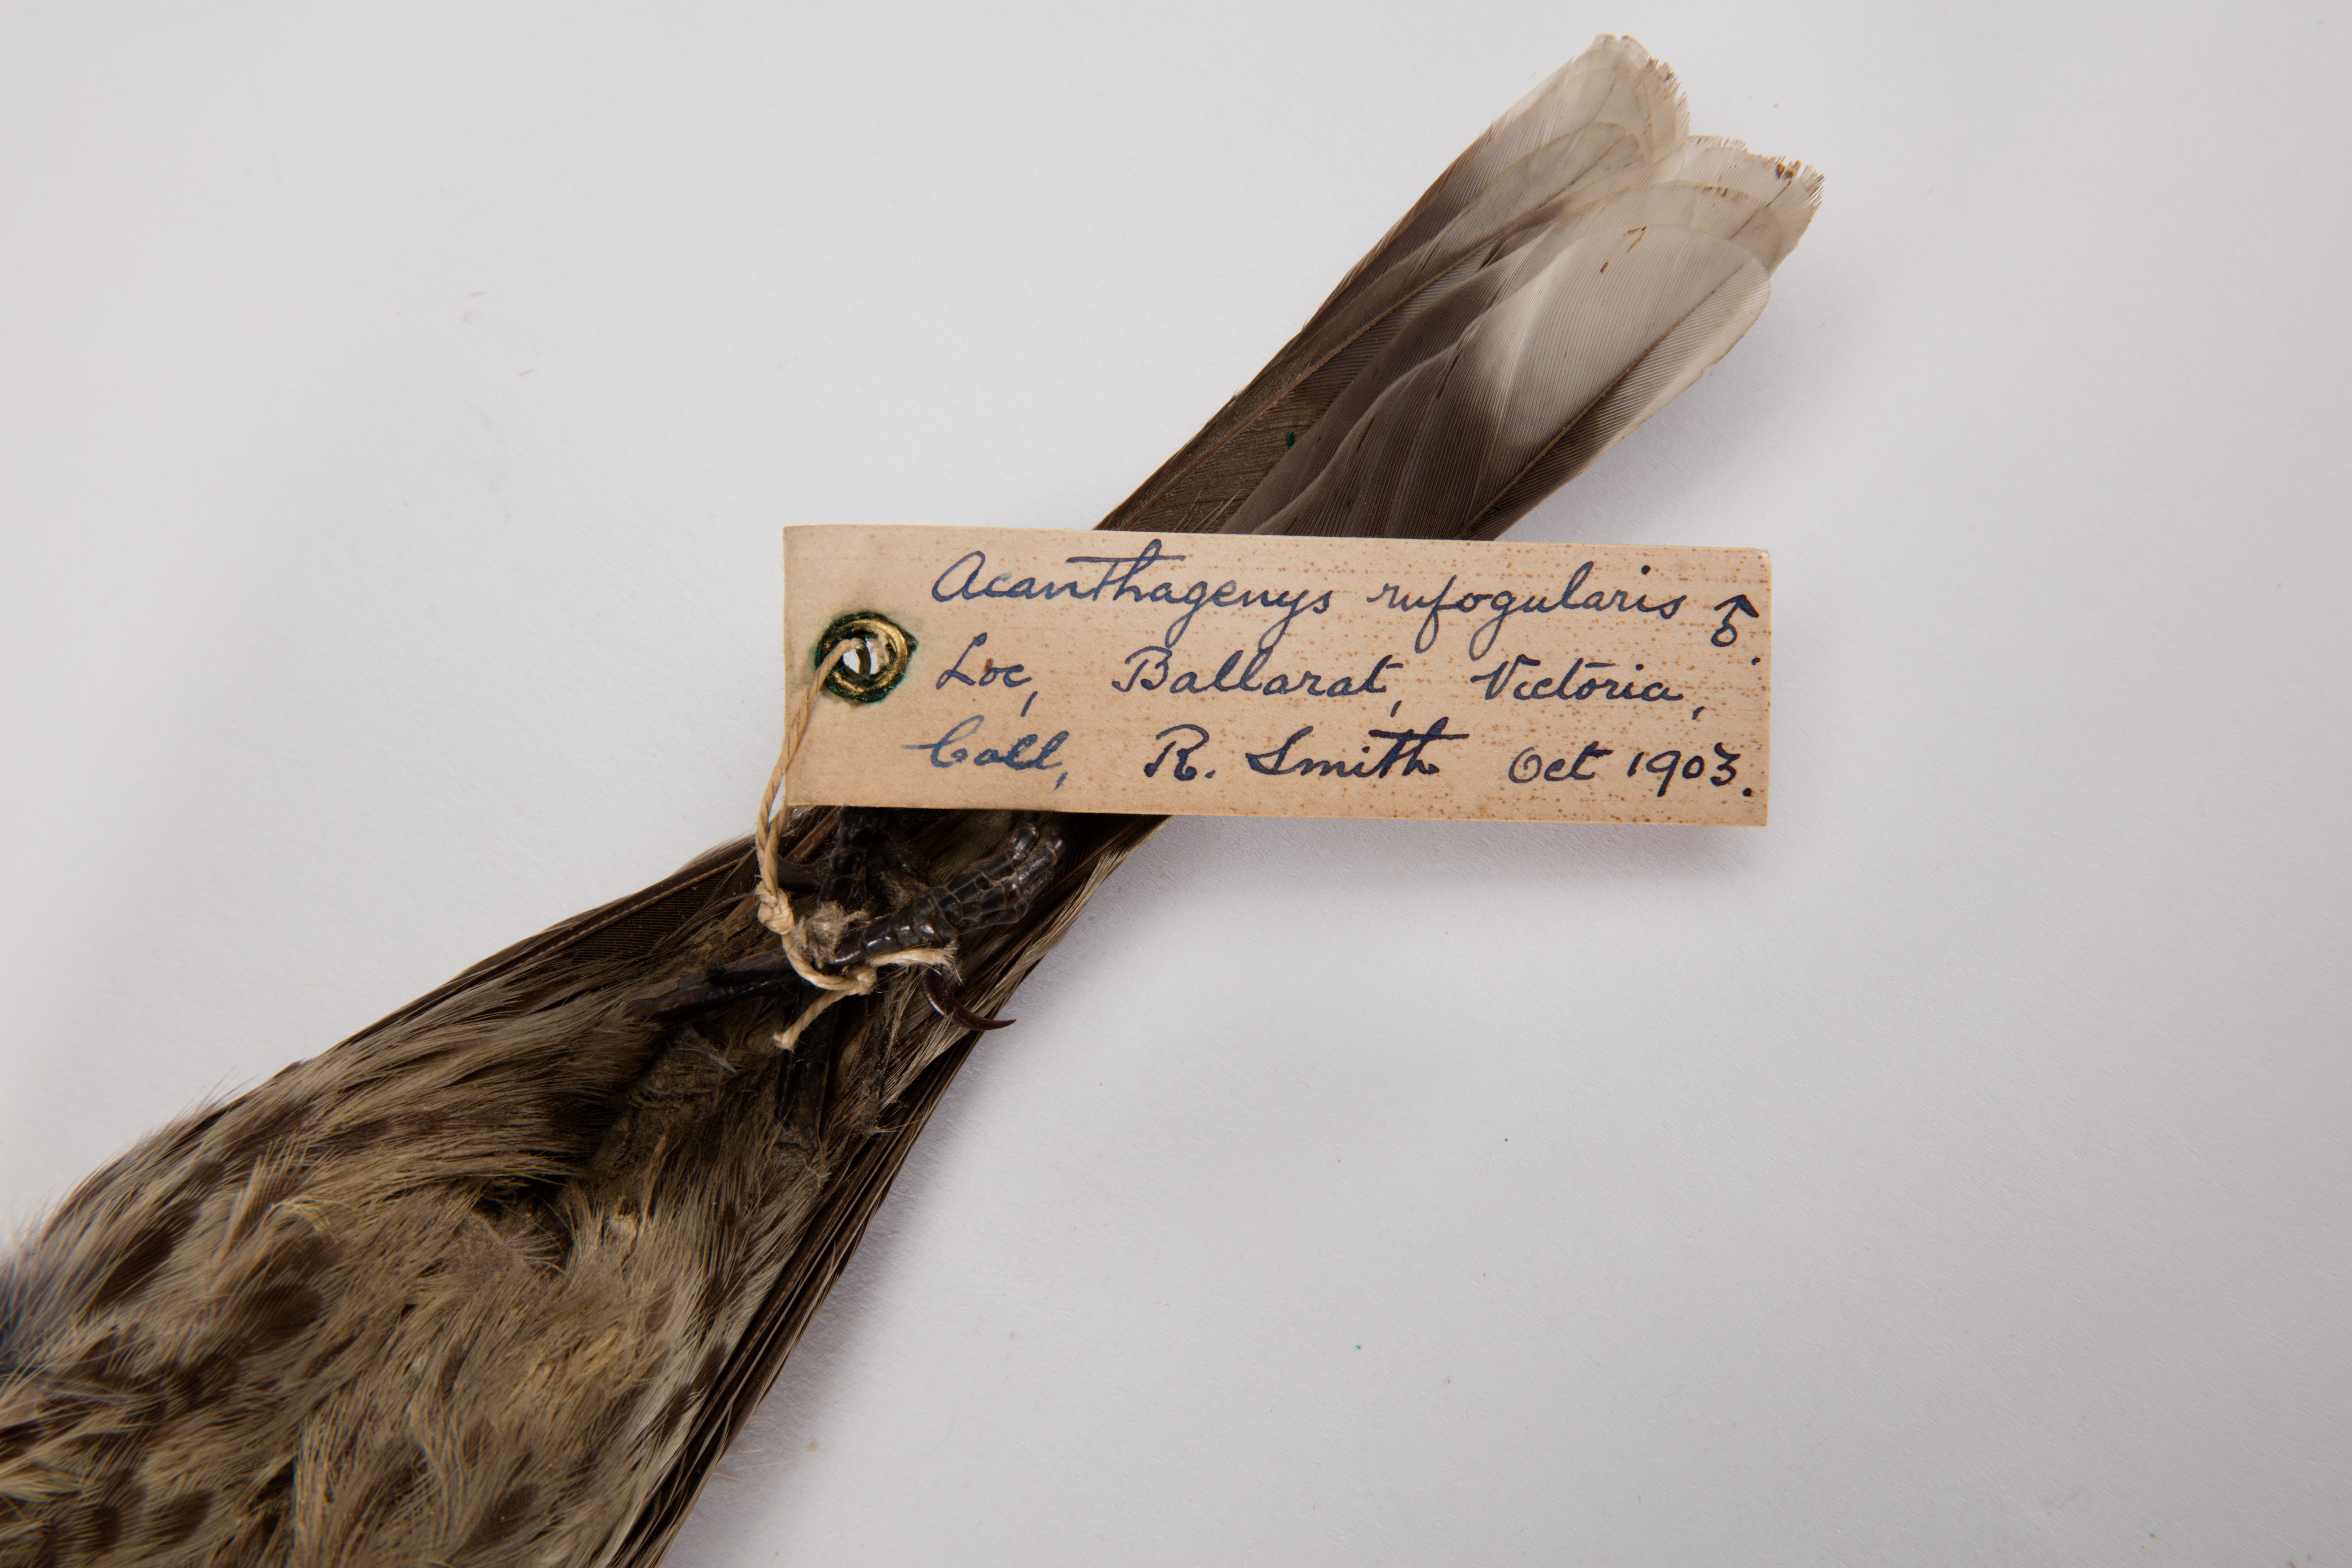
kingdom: Animalia
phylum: Chordata
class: Aves
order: Passeriformes
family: Meliphagidae
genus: Acanthagenys
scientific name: Acanthagenys rufogularis
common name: Spiny-cheeked honeyeater
